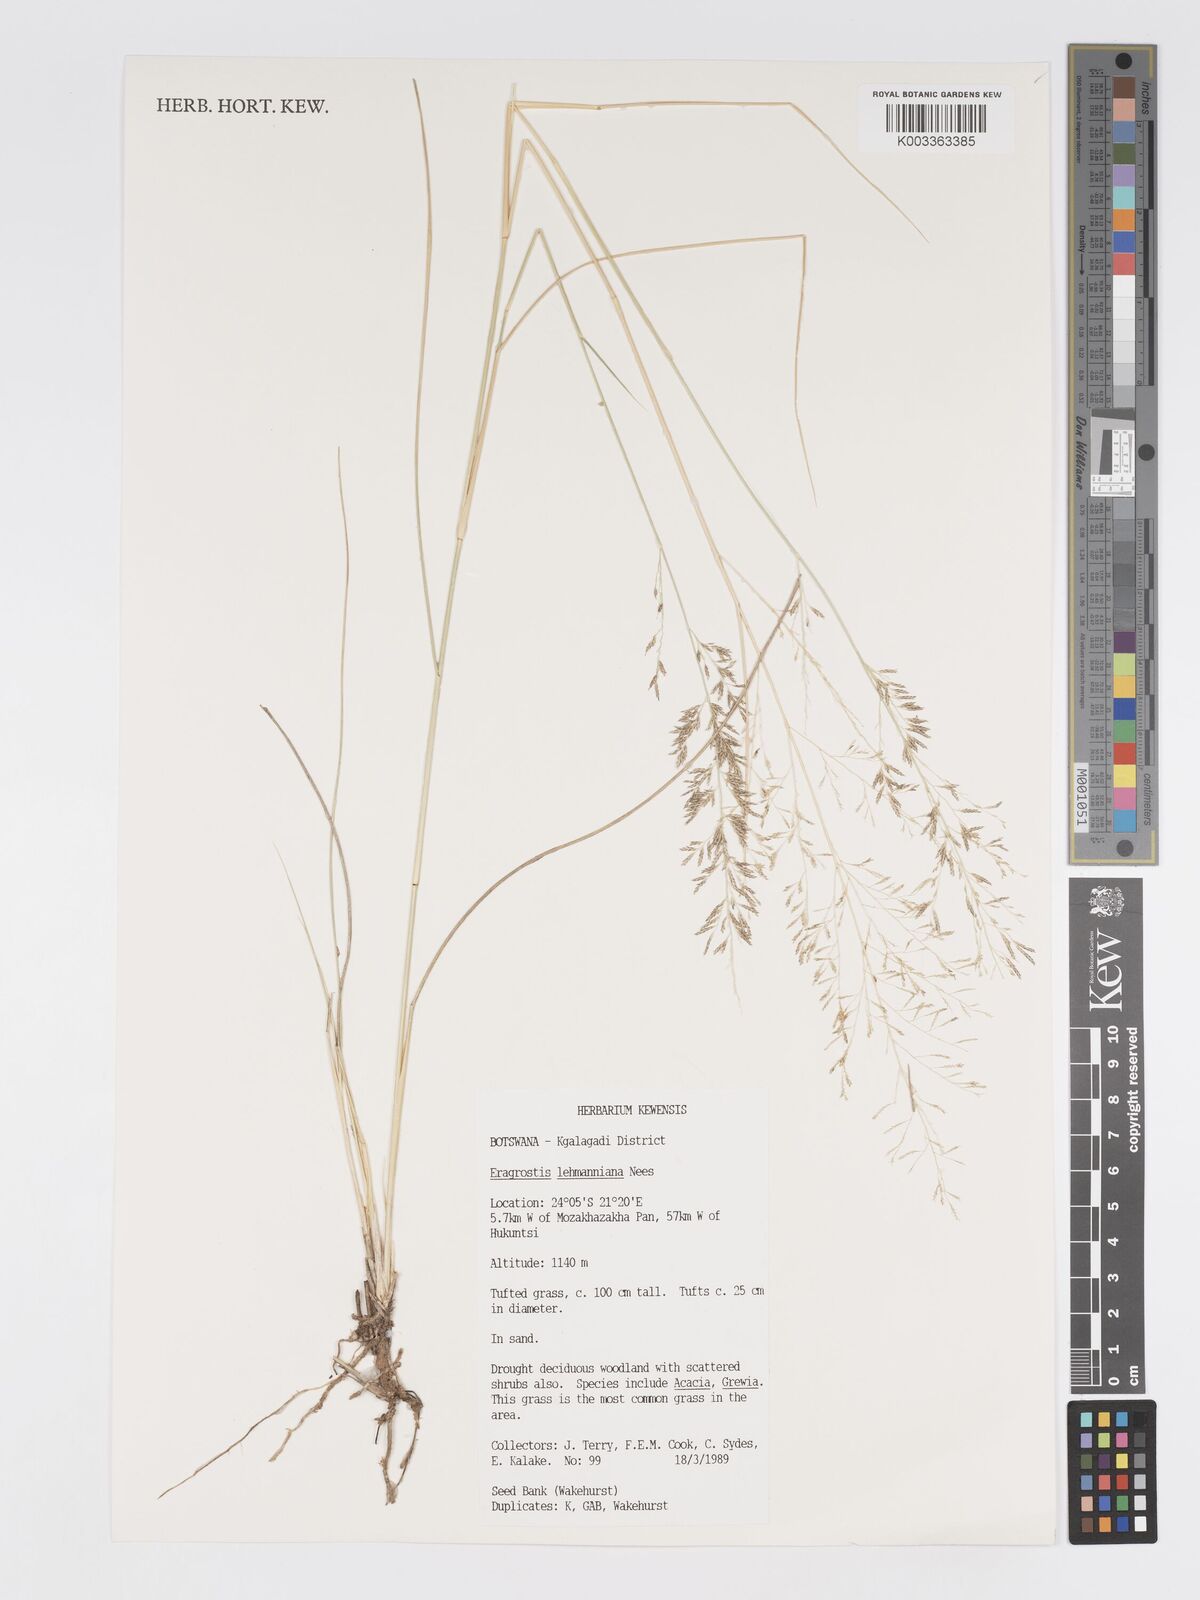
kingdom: Plantae
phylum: Tracheophyta
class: Liliopsida
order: Poales
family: Poaceae
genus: Eragrostis
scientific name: Eragrostis lehmanniana
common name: Lehmann lovegrass
